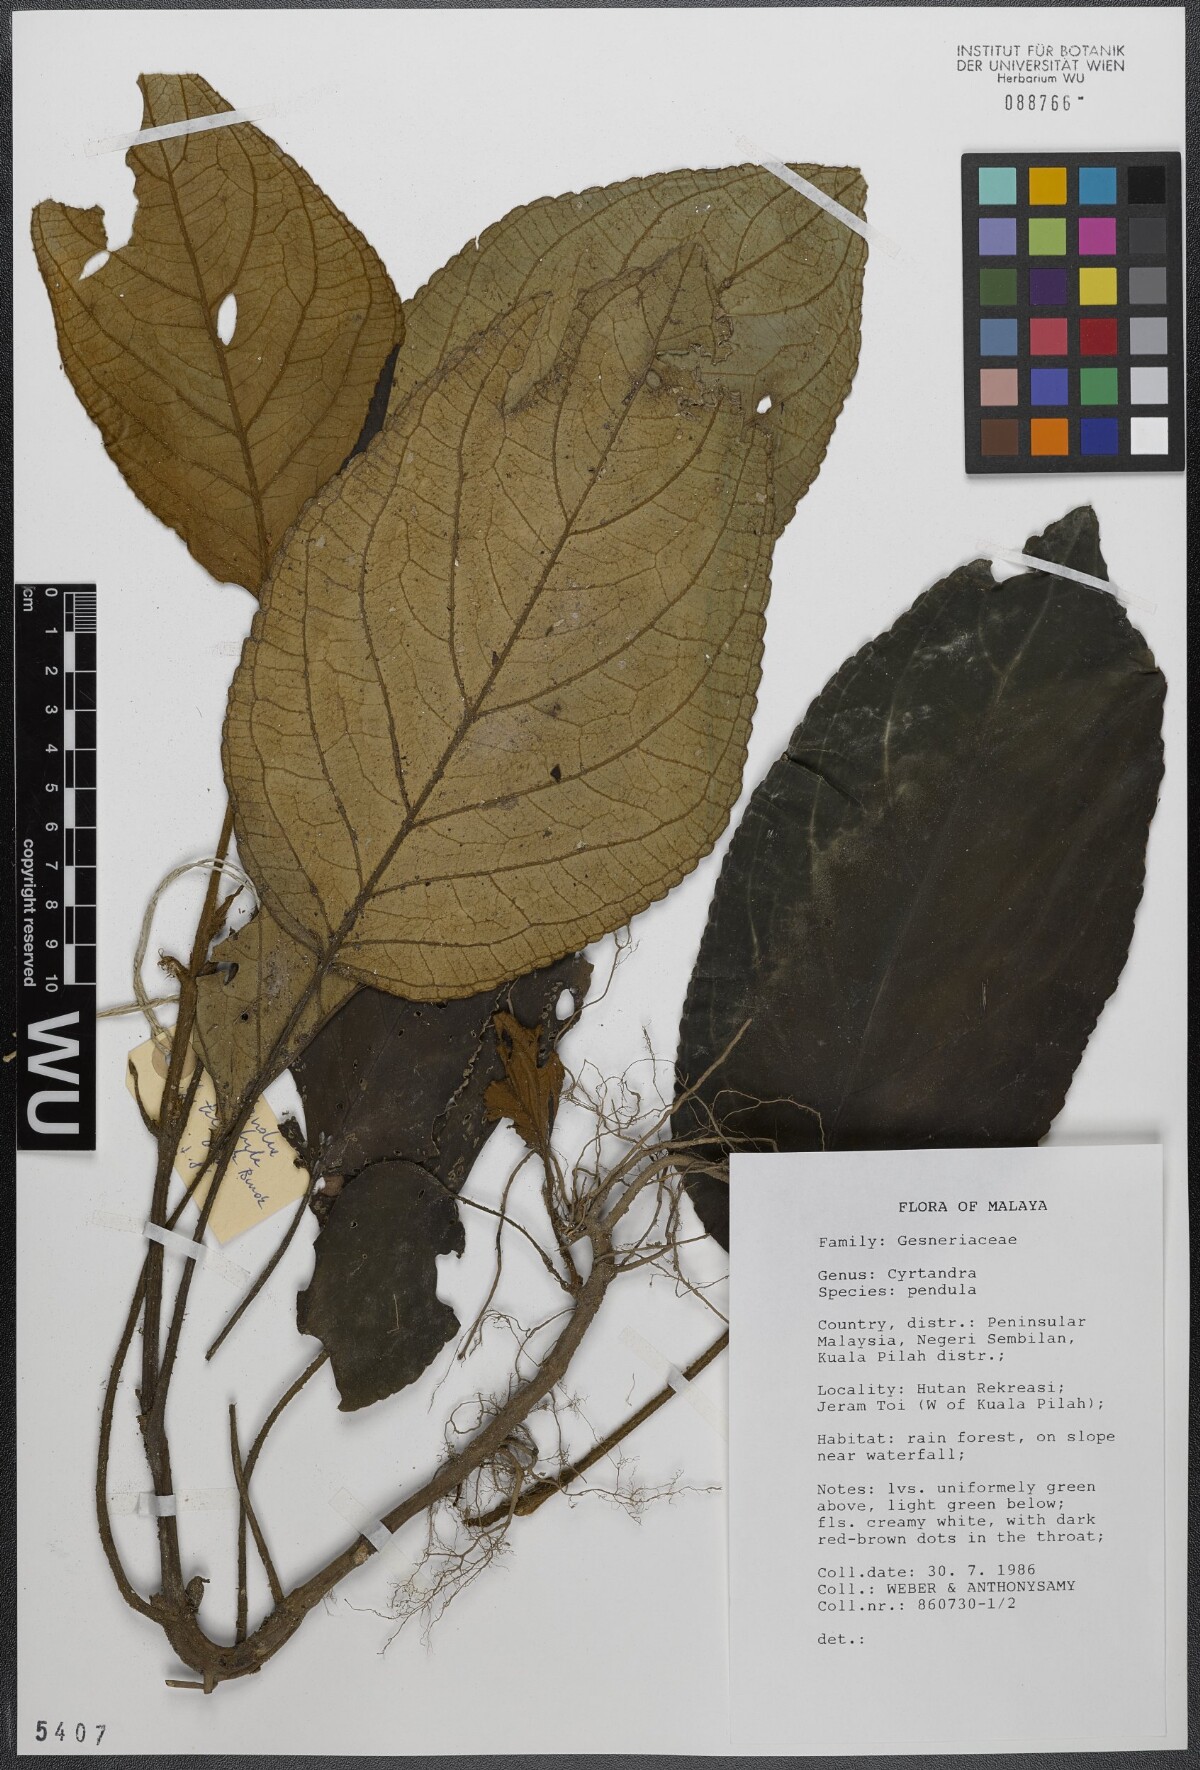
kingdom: Plantae
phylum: Tracheophyta
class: Magnoliopsida
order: Lamiales
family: Gesneriaceae
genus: Cyrtandra
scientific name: Cyrtandra pendula
